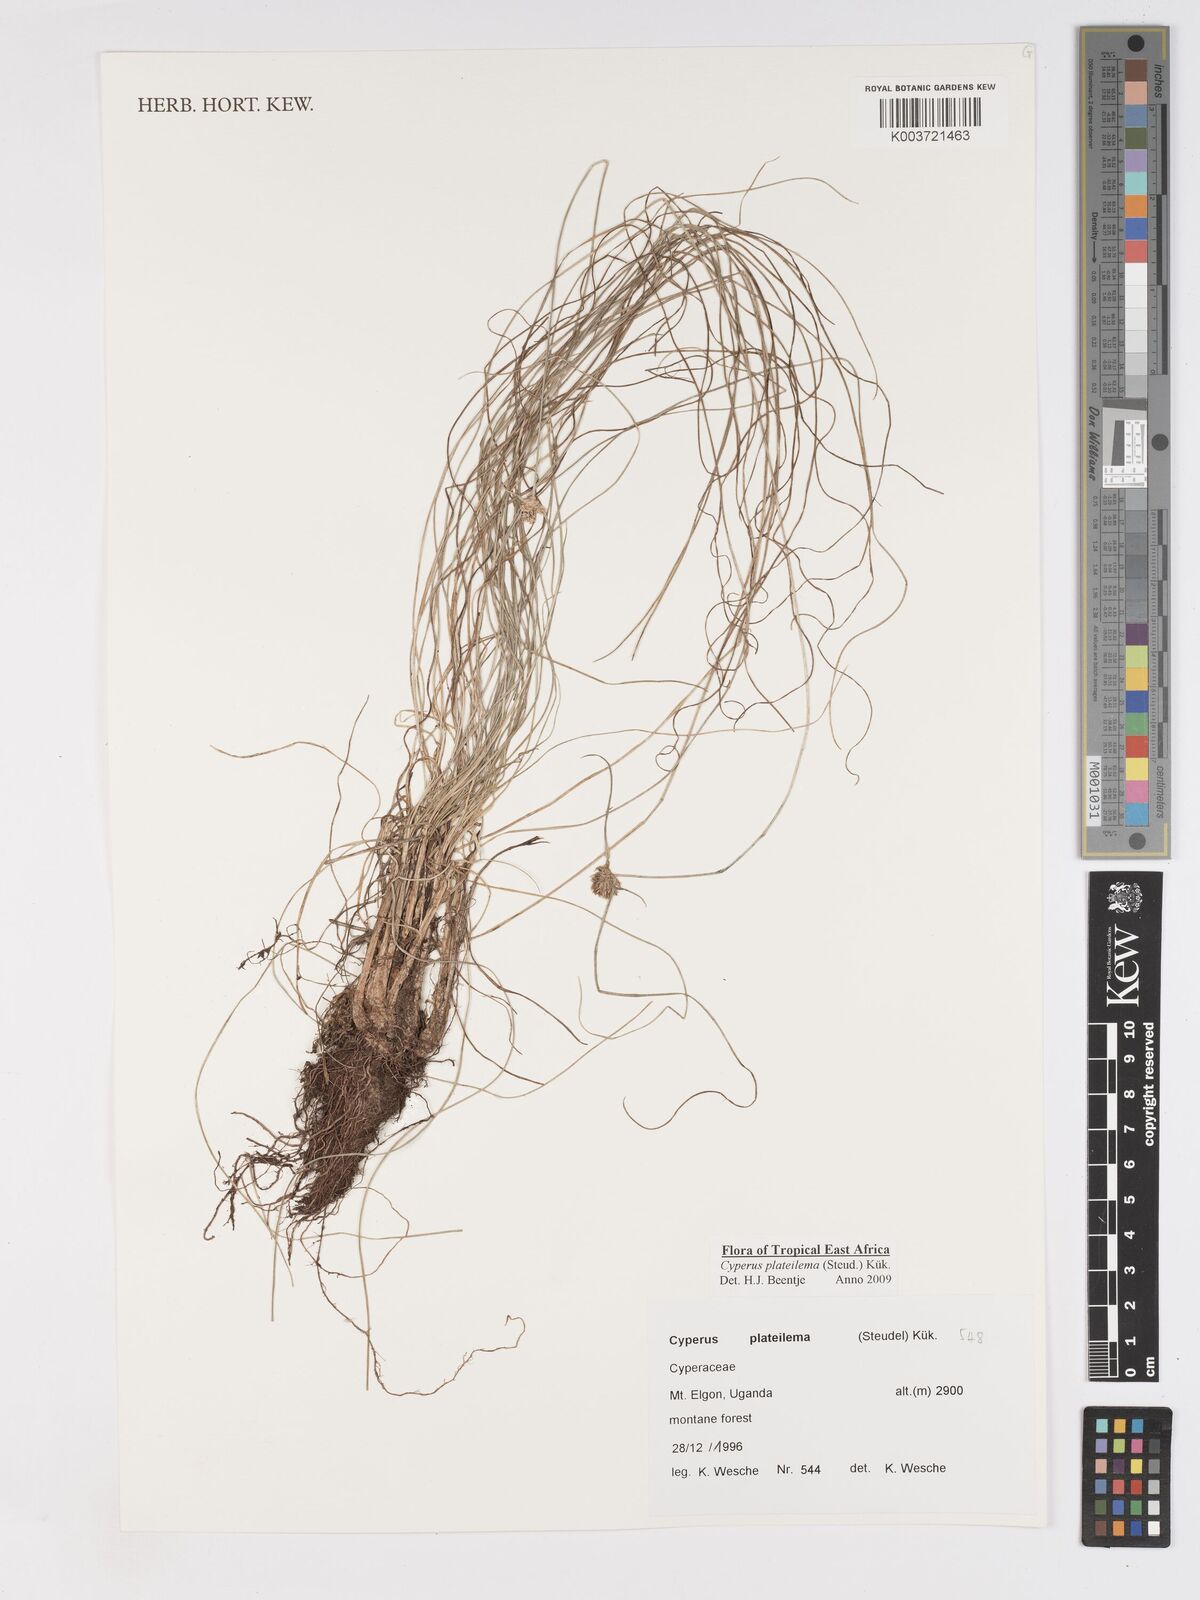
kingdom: Plantae
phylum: Tracheophyta
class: Liliopsida
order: Poales
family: Cyperaceae
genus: Cyperus
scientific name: Cyperus plateilema
